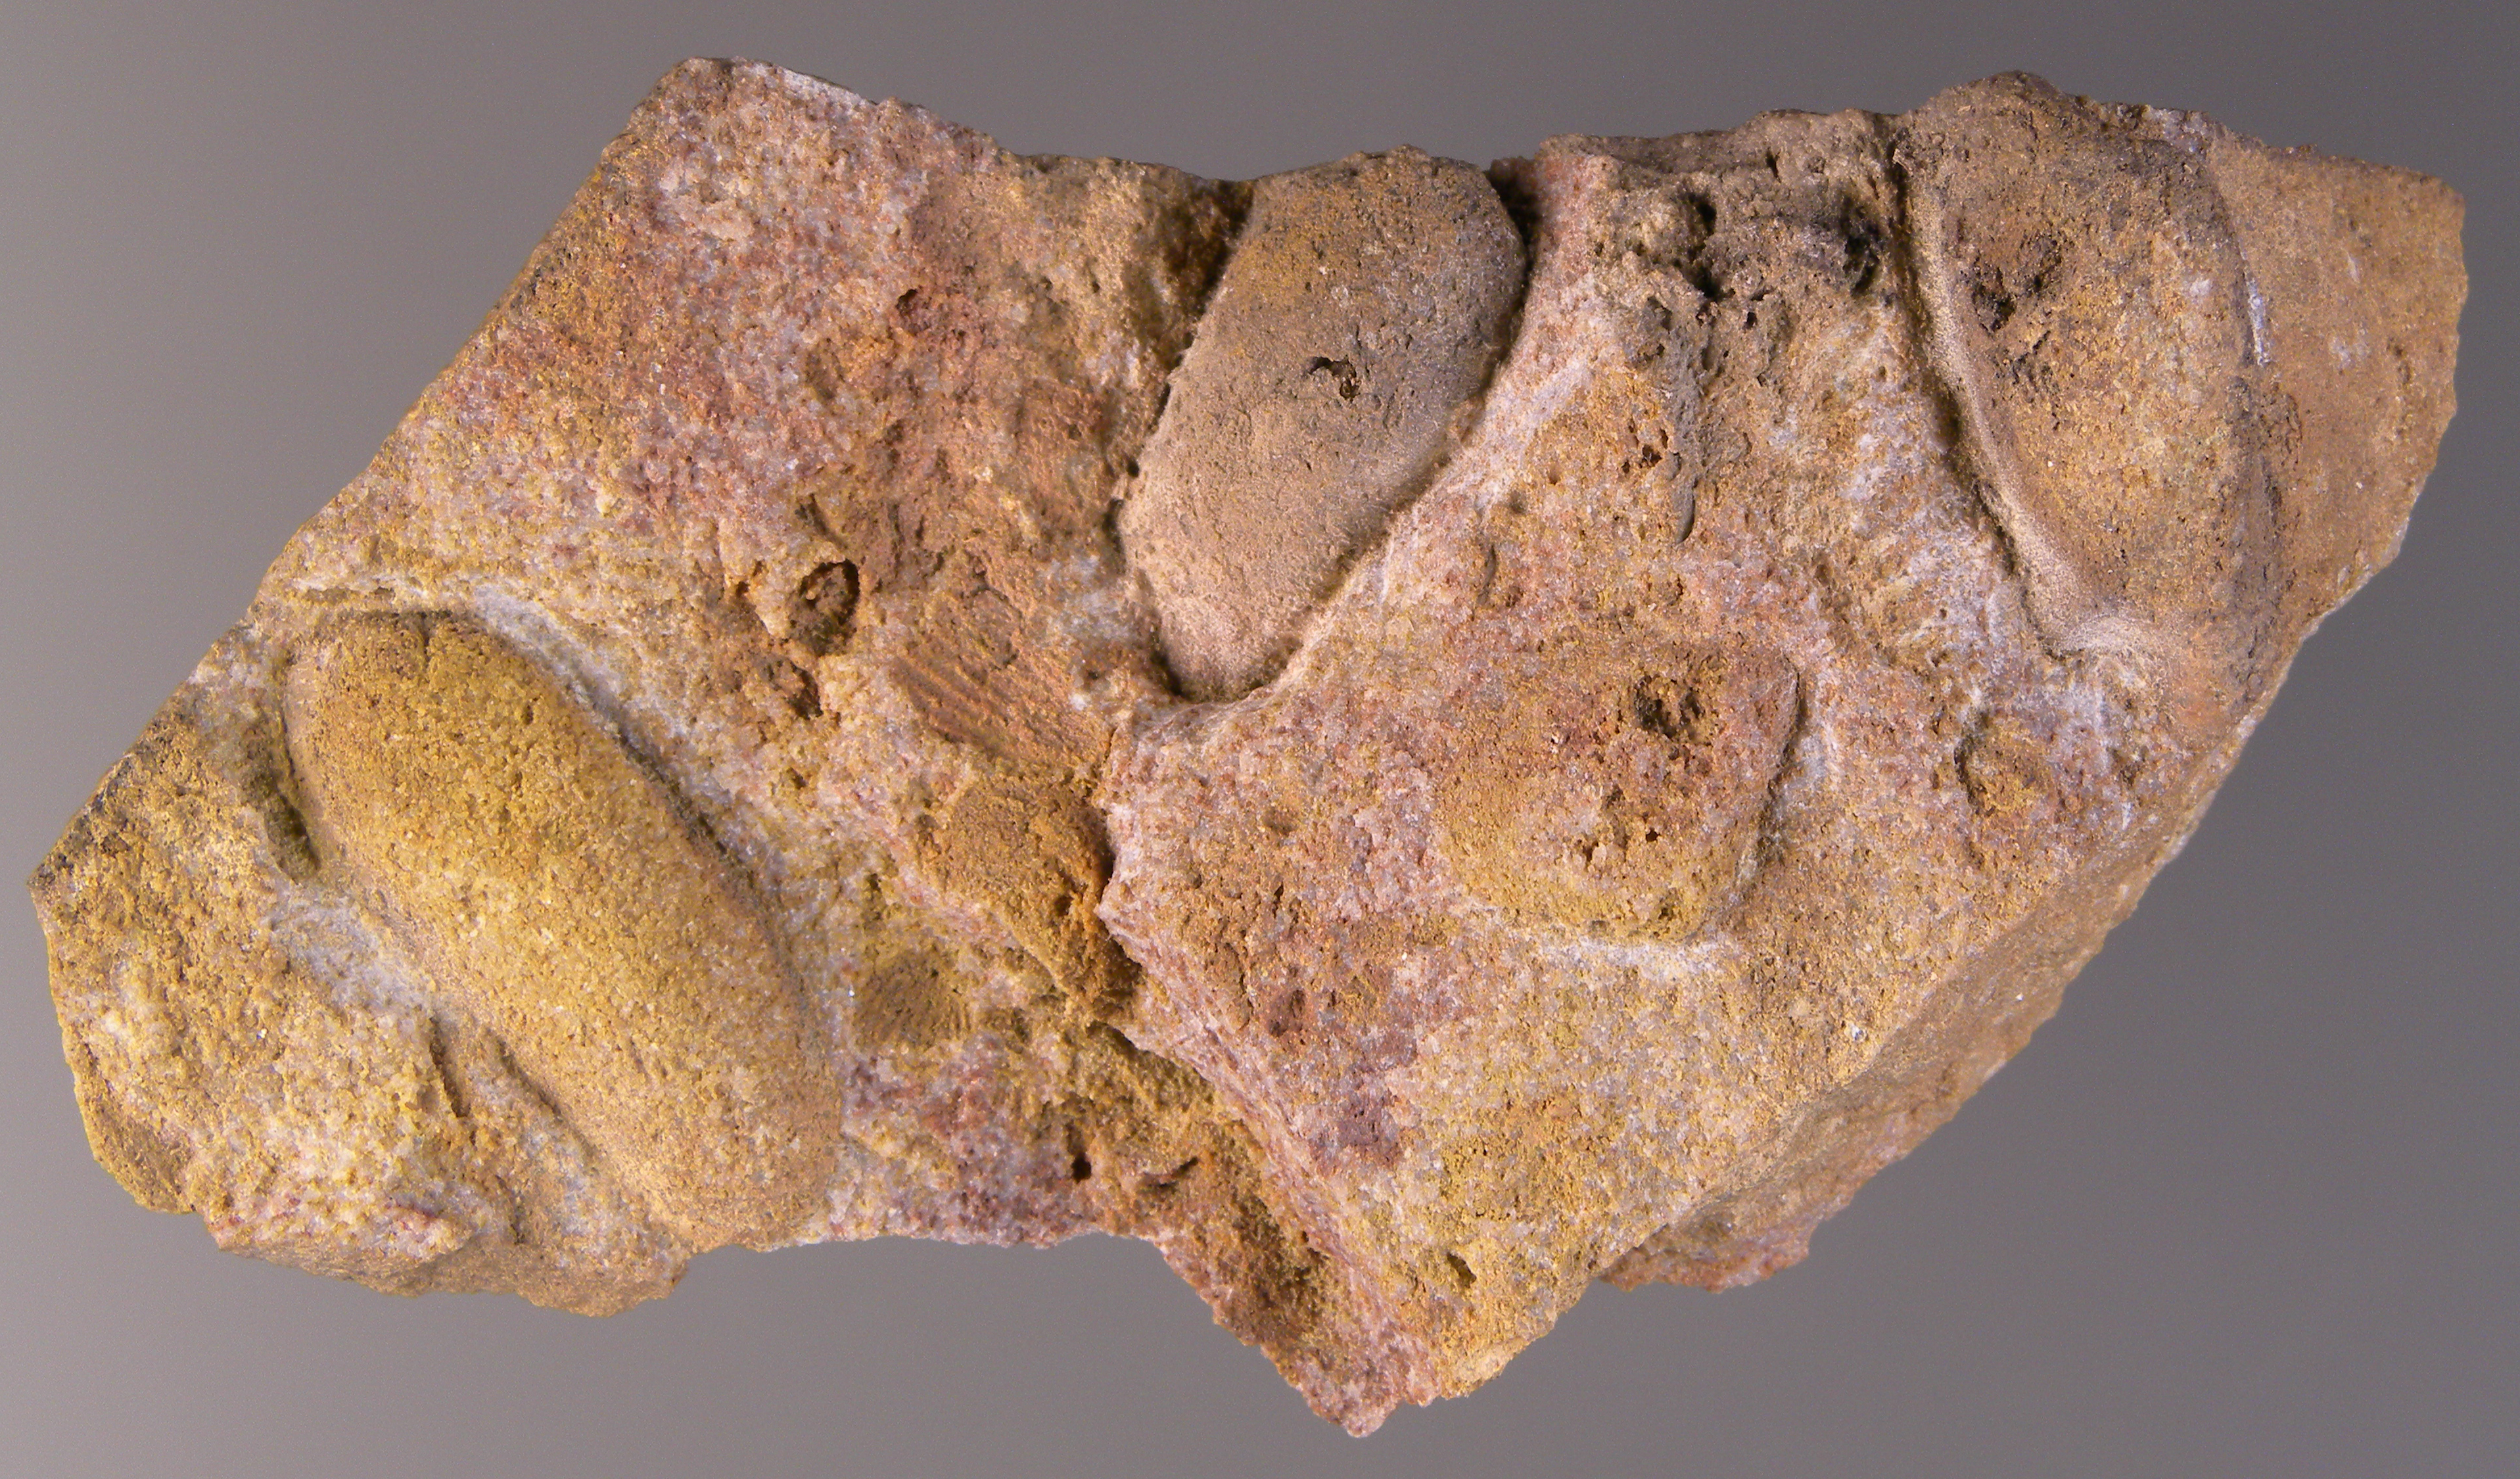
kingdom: Animalia
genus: Koenenia
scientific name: Koenenia
